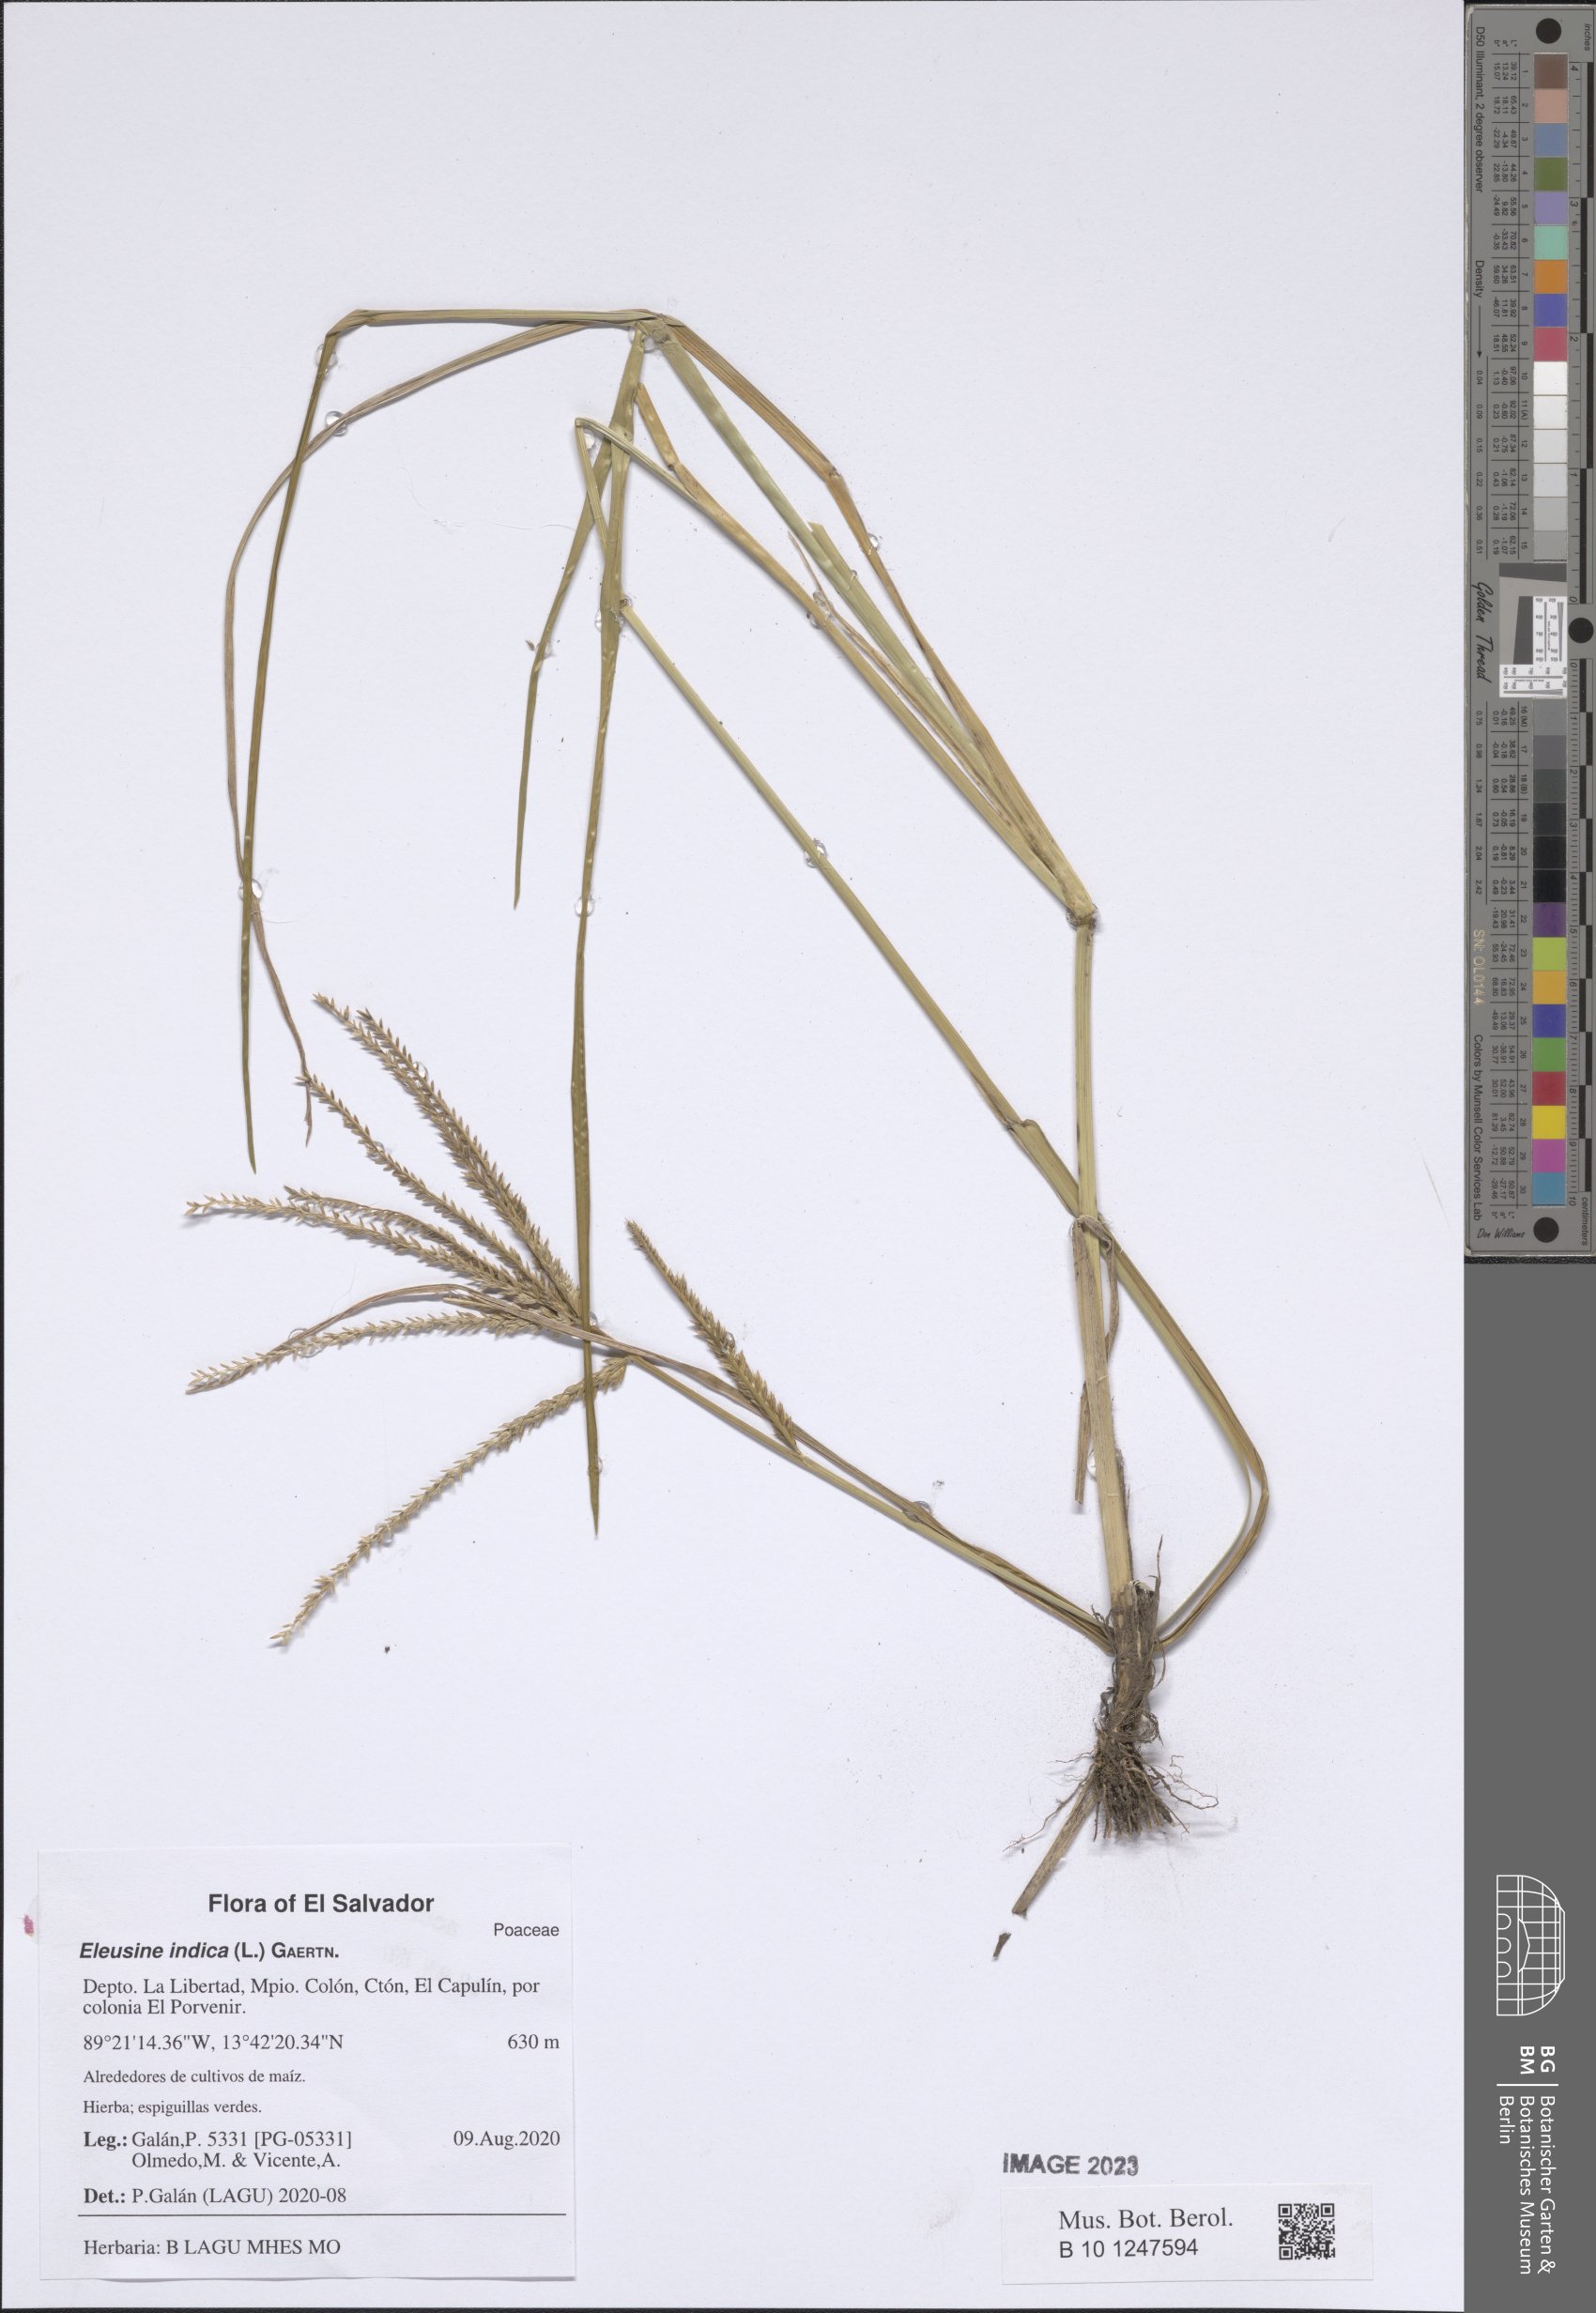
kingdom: Plantae
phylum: Tracheophyta
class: Liliopsida
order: Poales
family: Poaceae
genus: Eleusine
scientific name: Eleusine indica
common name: Yard-grass
